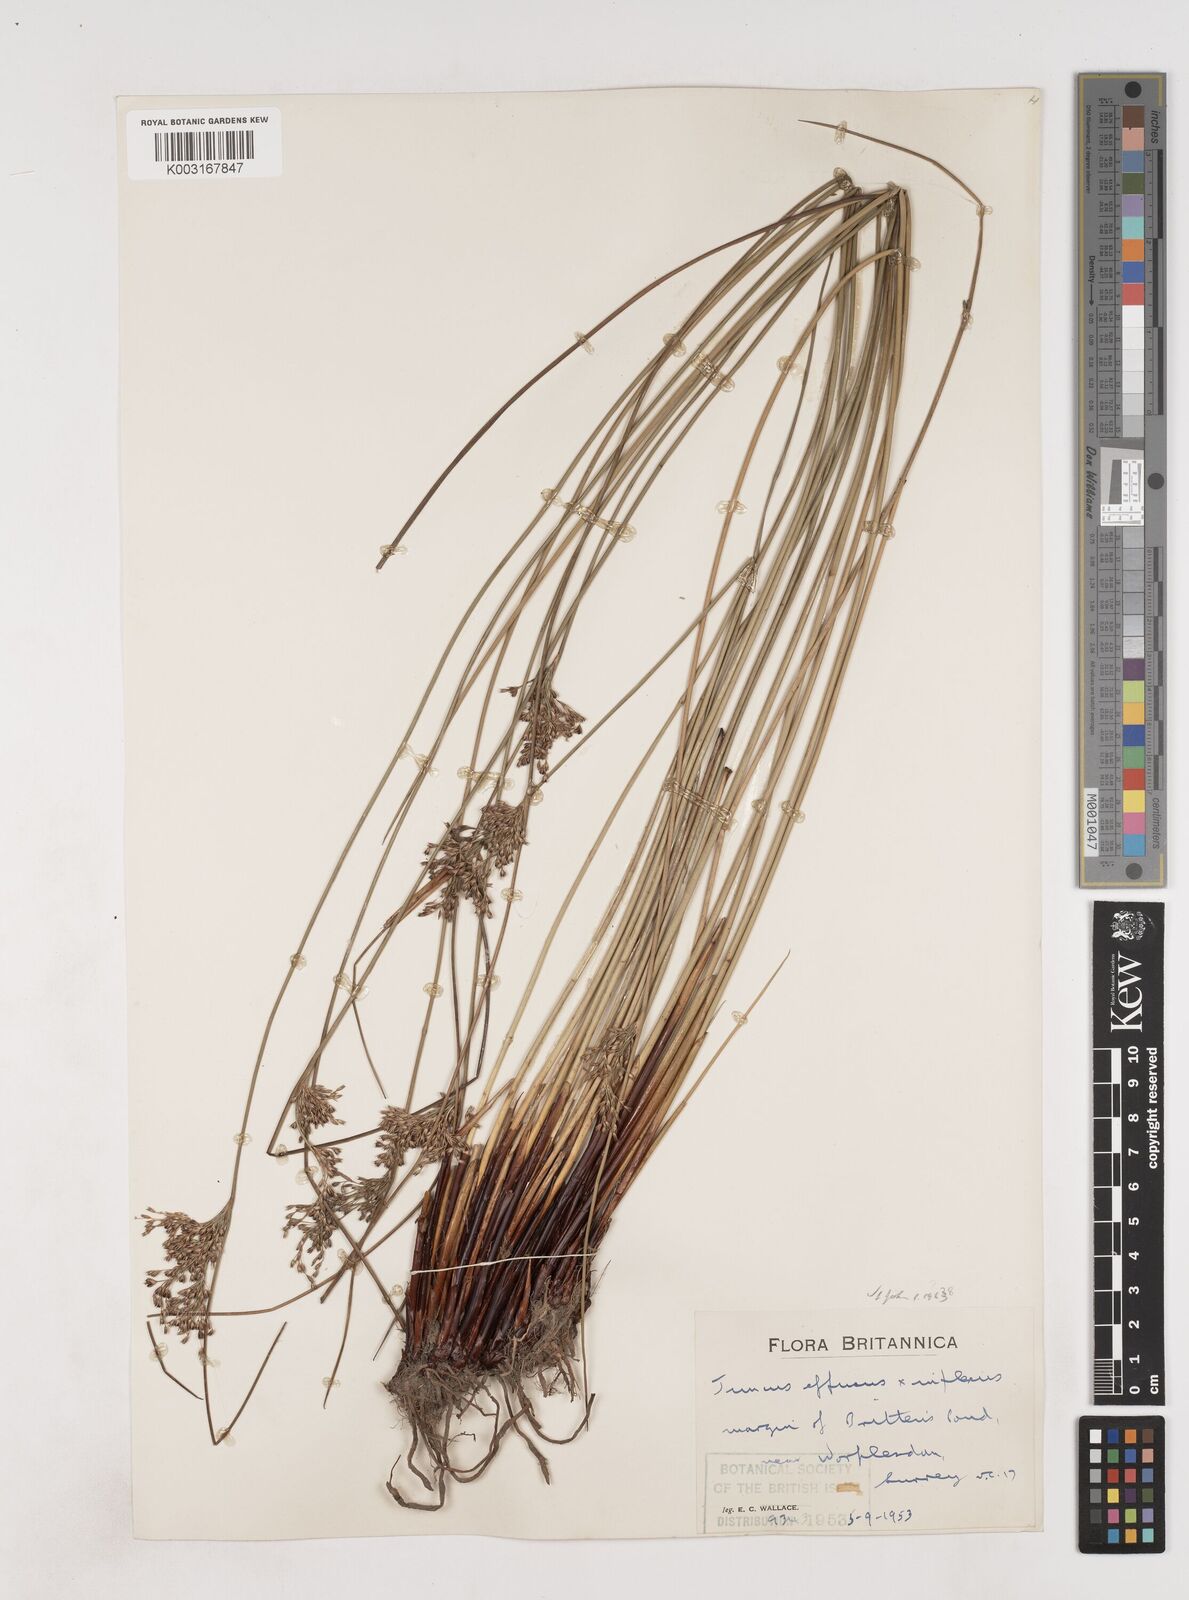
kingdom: Plantae
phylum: Tracheophyta
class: Liliopsida
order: Poales
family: Juncaceae
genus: Juncus
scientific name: Juncus effusus
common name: Soft rush
